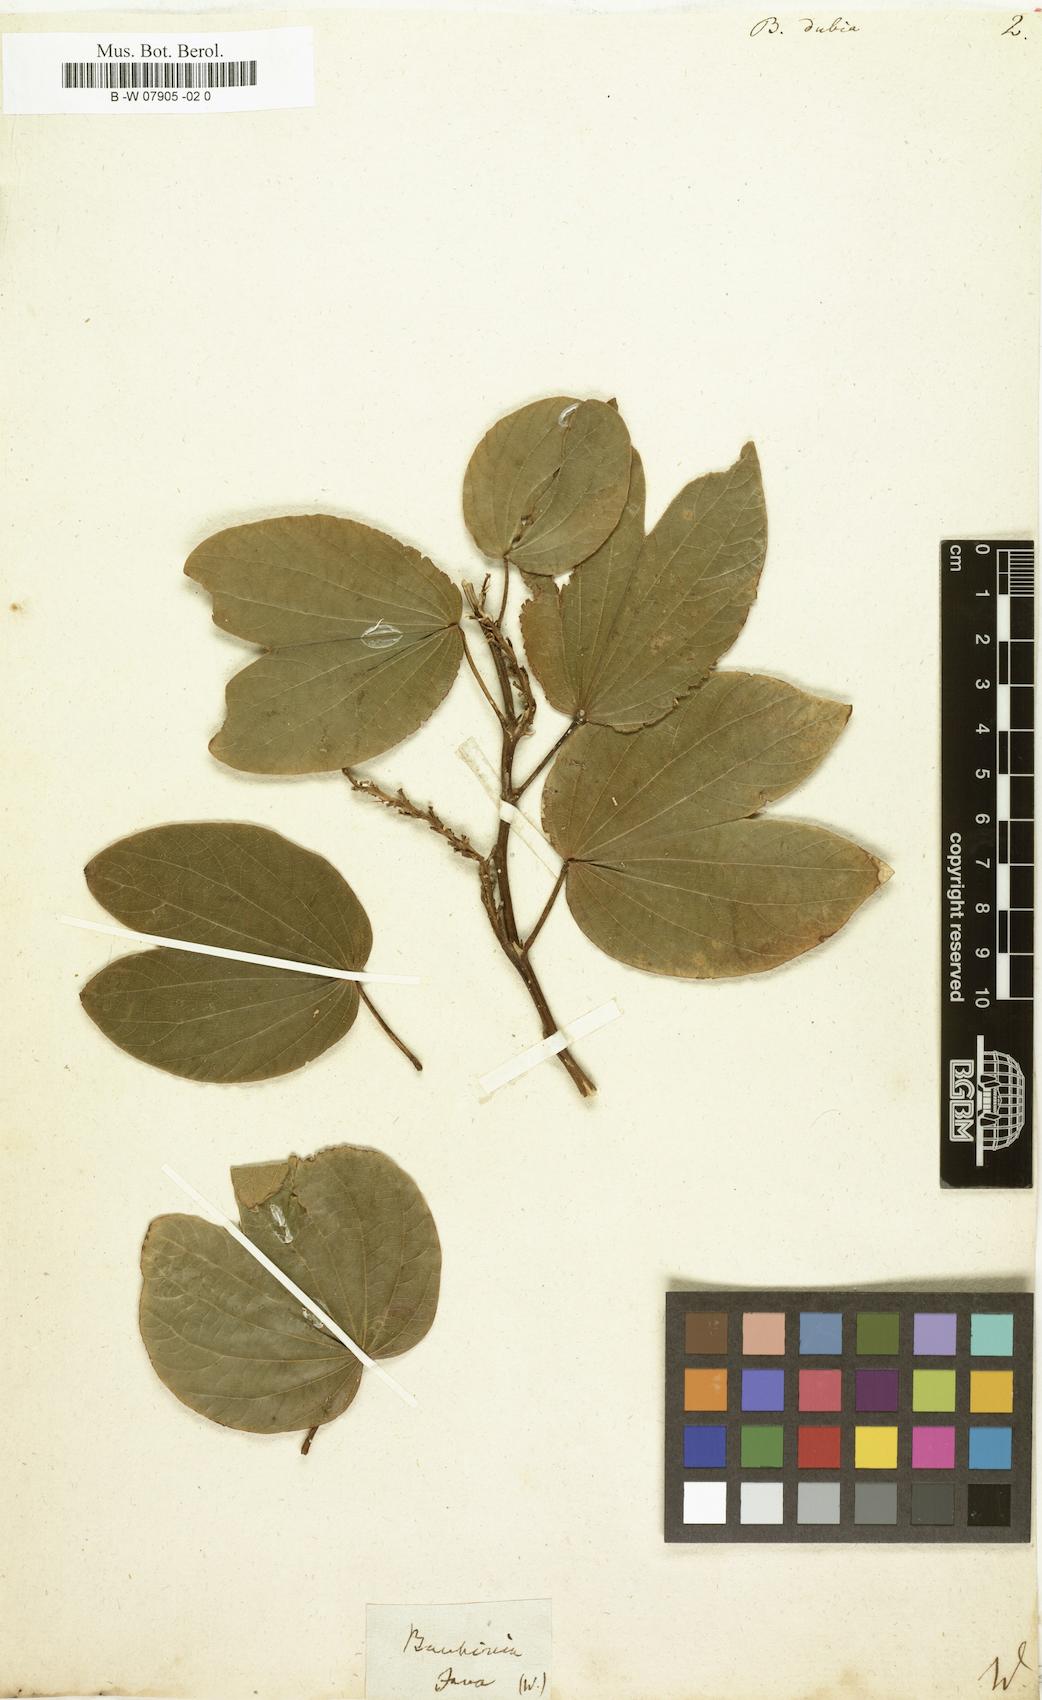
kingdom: Plantae
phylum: Tracheophyta
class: Magnoliopsida
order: Fabales
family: Fabaceae
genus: Bauhinia
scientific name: Bauhinia dubia
